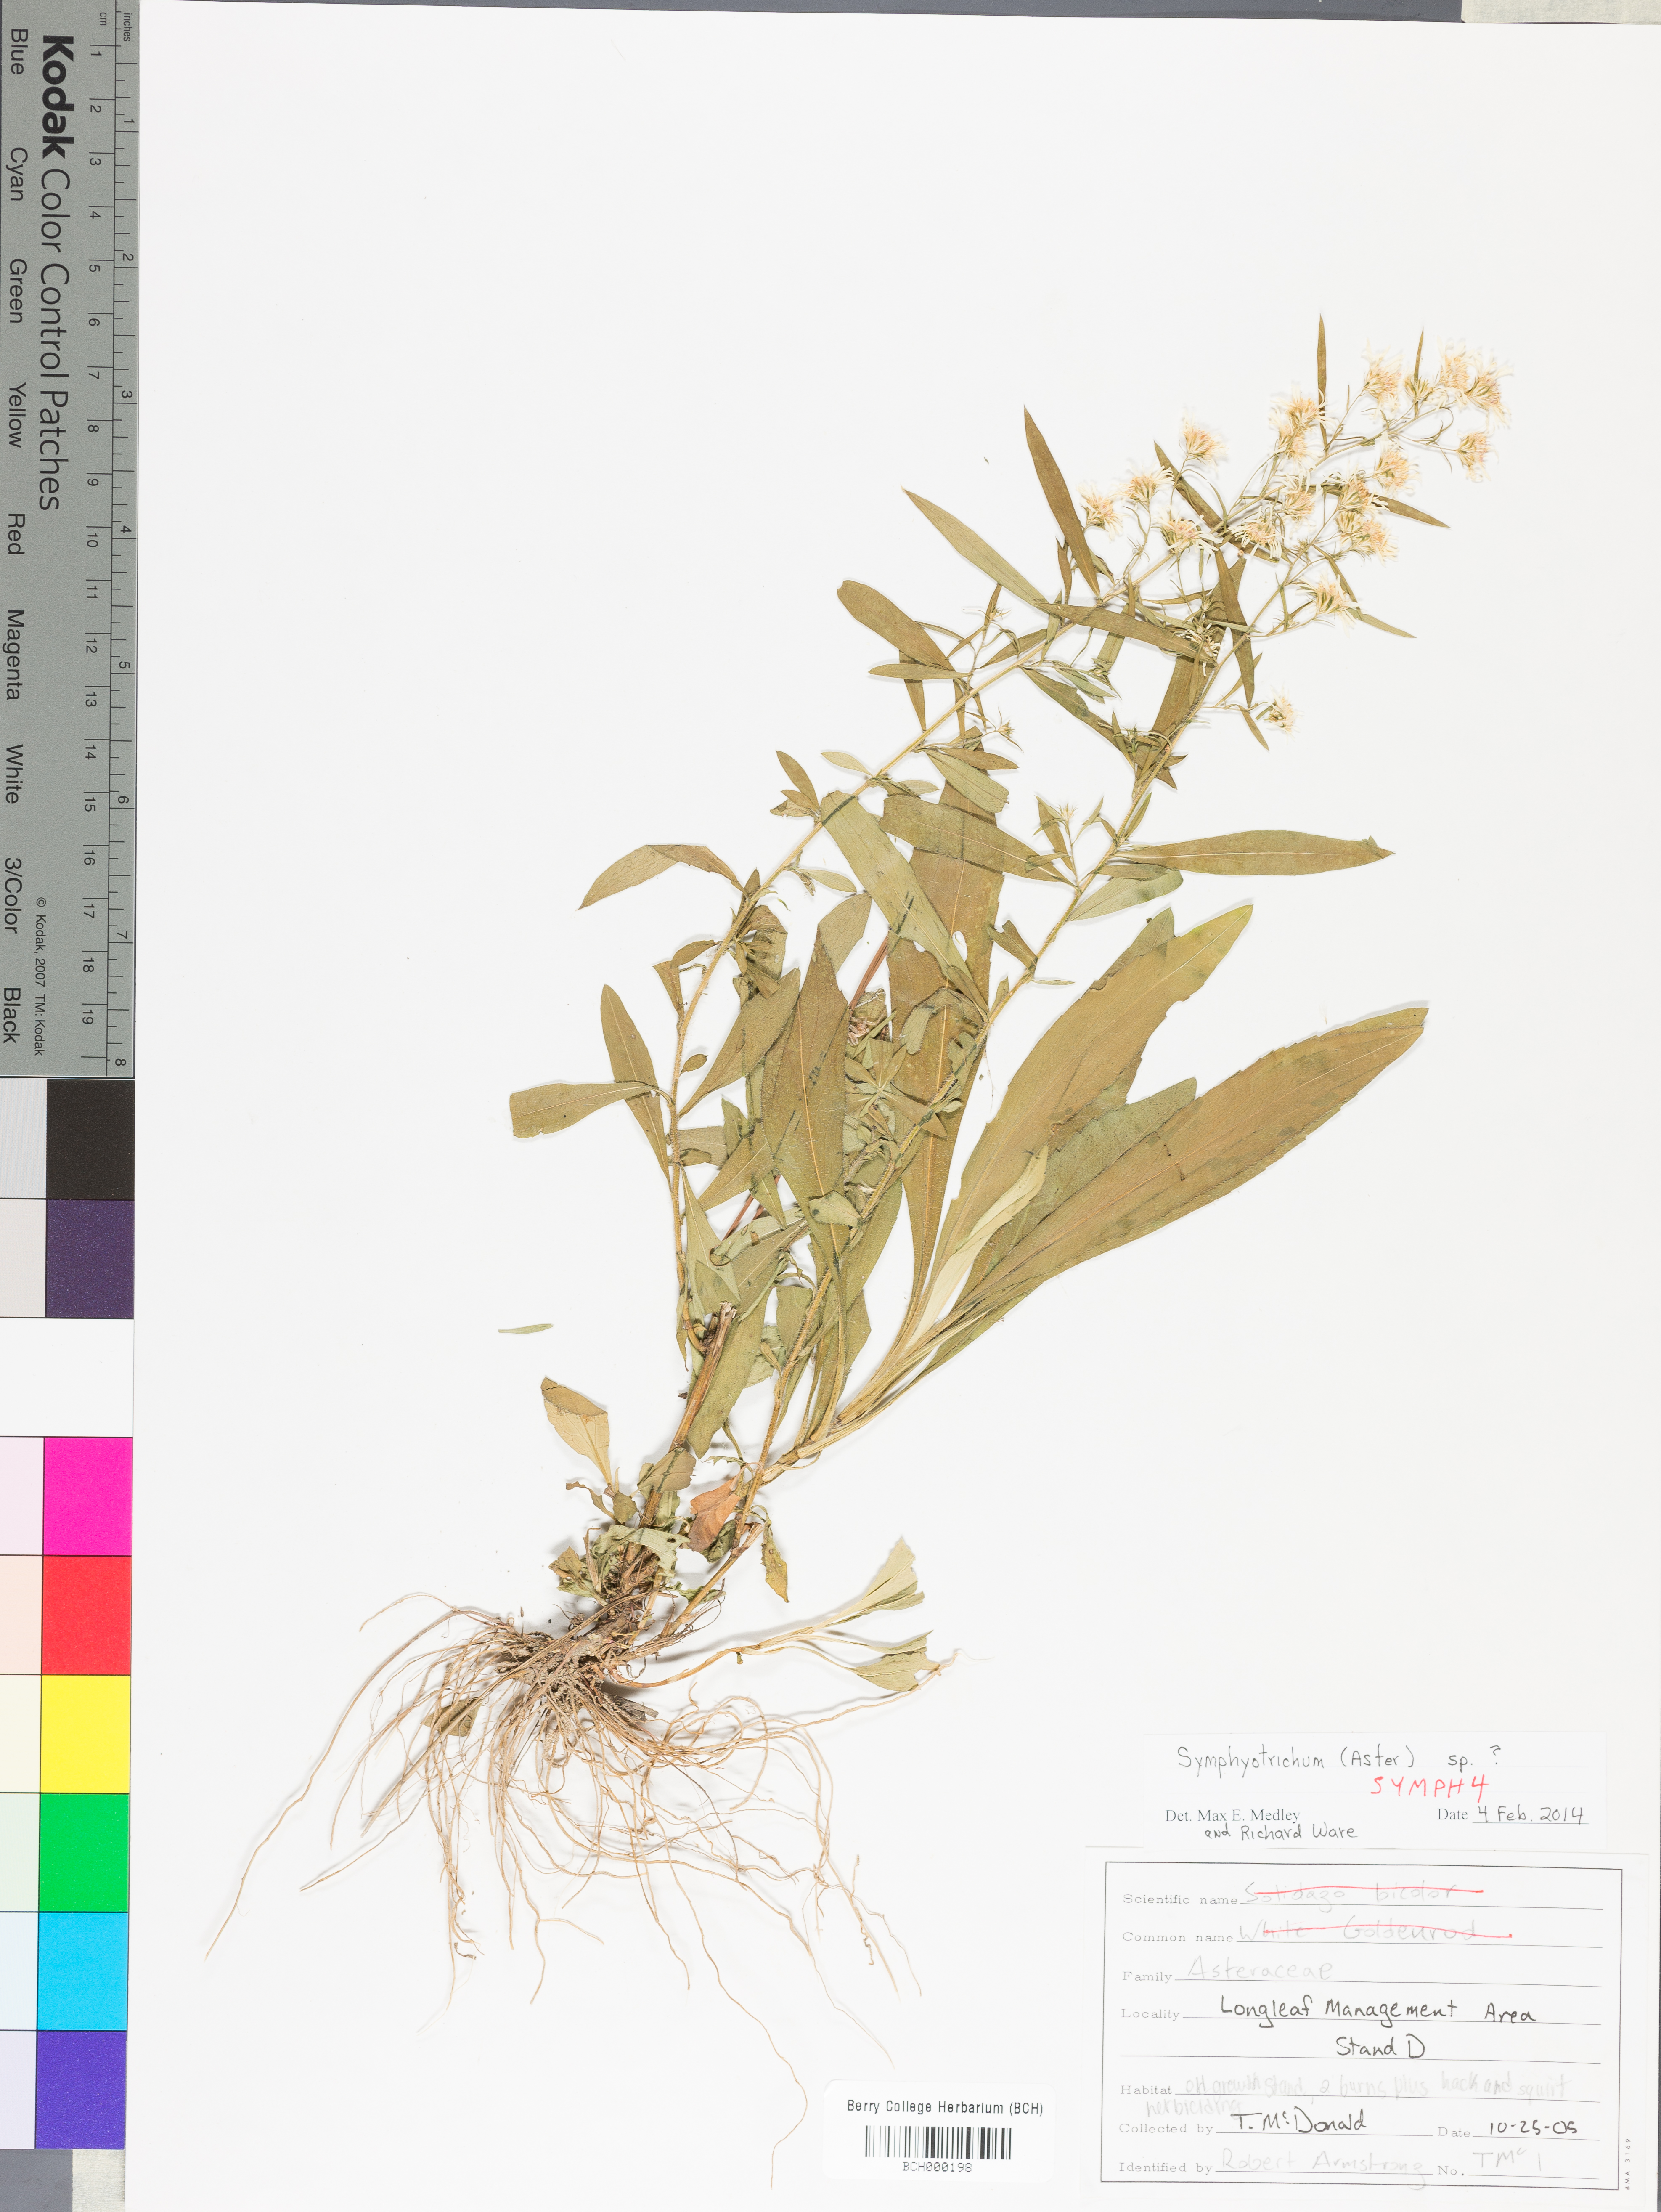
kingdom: Plantae
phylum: Tracheophyta
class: Magnoliopsida
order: Asterales
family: Asteraceae
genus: Symphyotrichum
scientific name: Symphyotrichum
